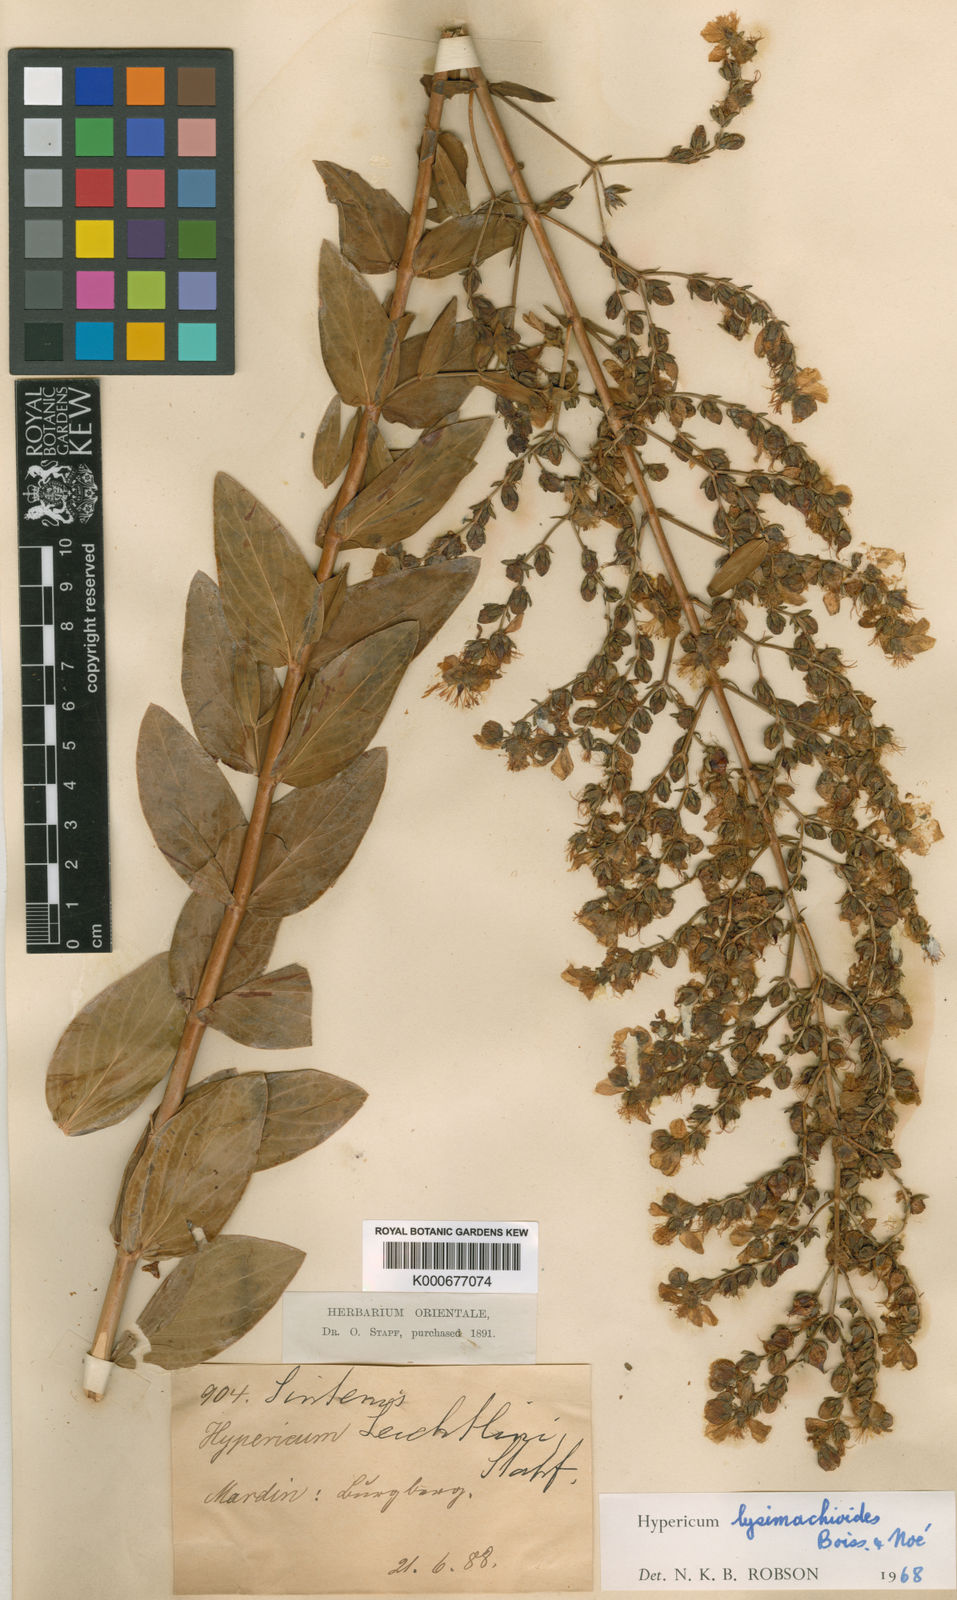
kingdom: Plantae
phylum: Tracheophyta
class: Magnoliopsida
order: Malpighiales
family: Hypericaceae
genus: Hypericum
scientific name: Hypericum
